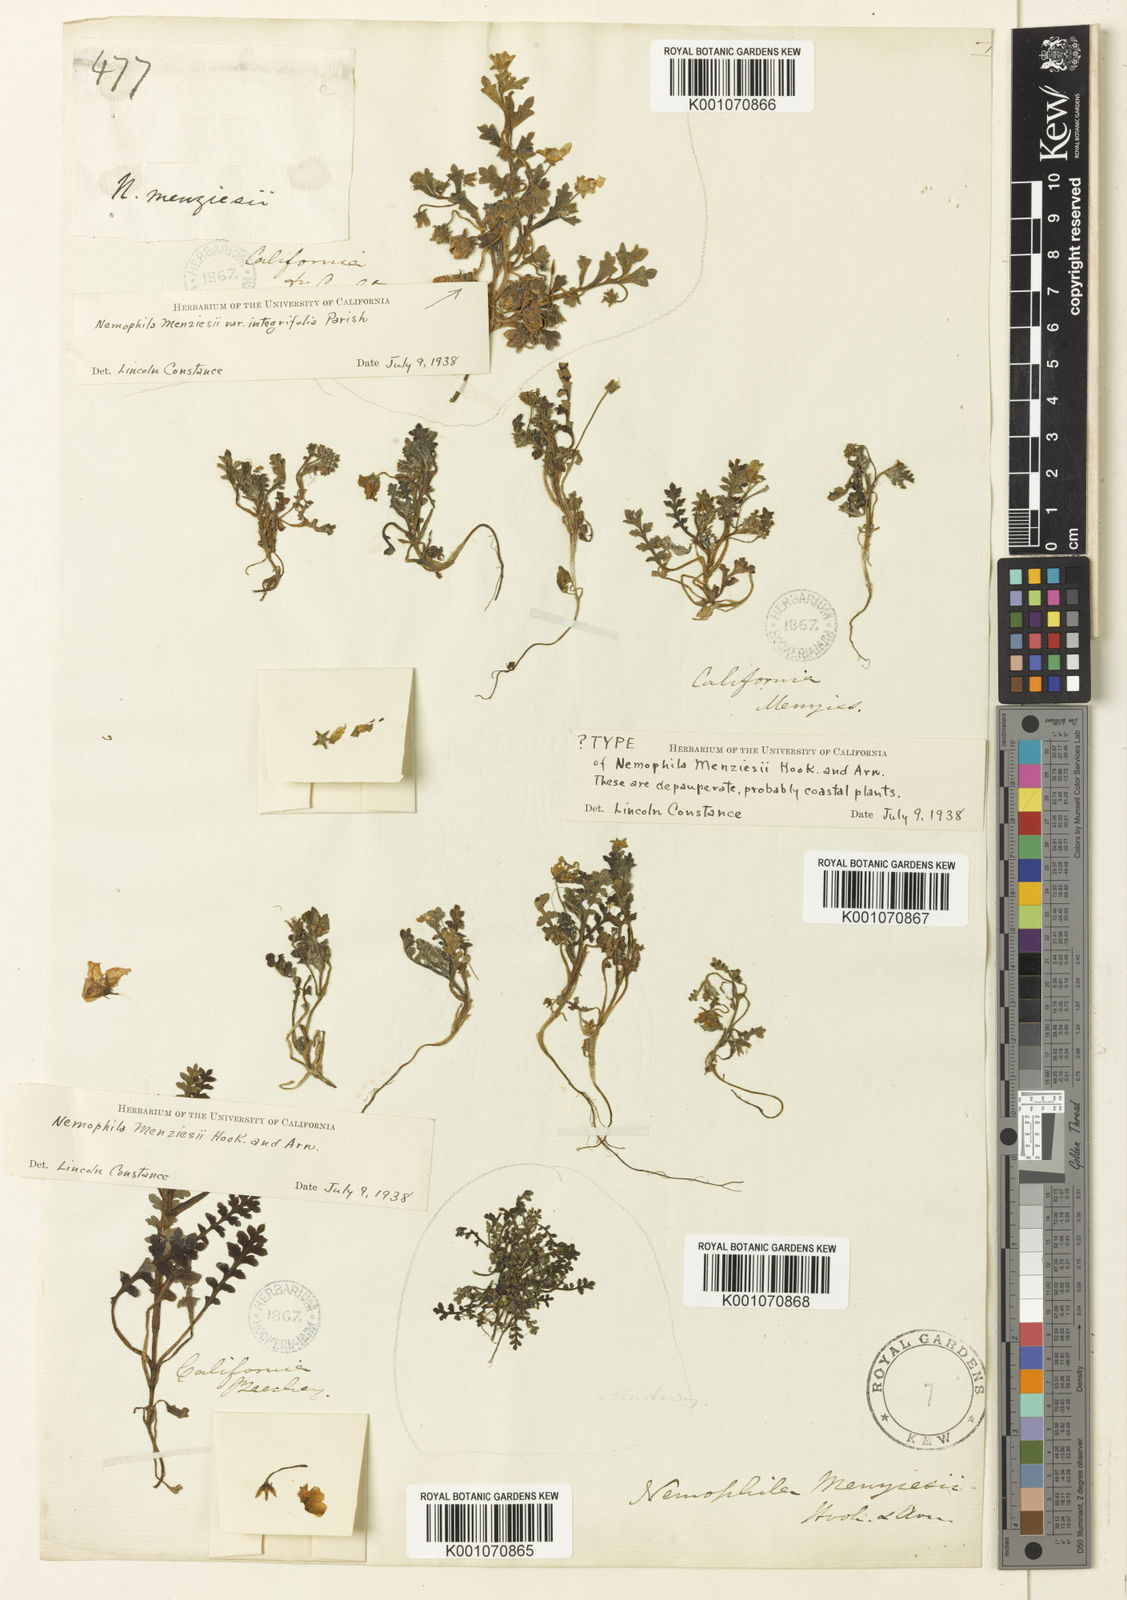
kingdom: Plantae
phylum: Tracheophyta
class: Magnoliopsida
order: Boraginales
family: Hydrophyllaceae
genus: Nemophila
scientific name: Nemophila menziesii
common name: Baby's-blue-eyes
